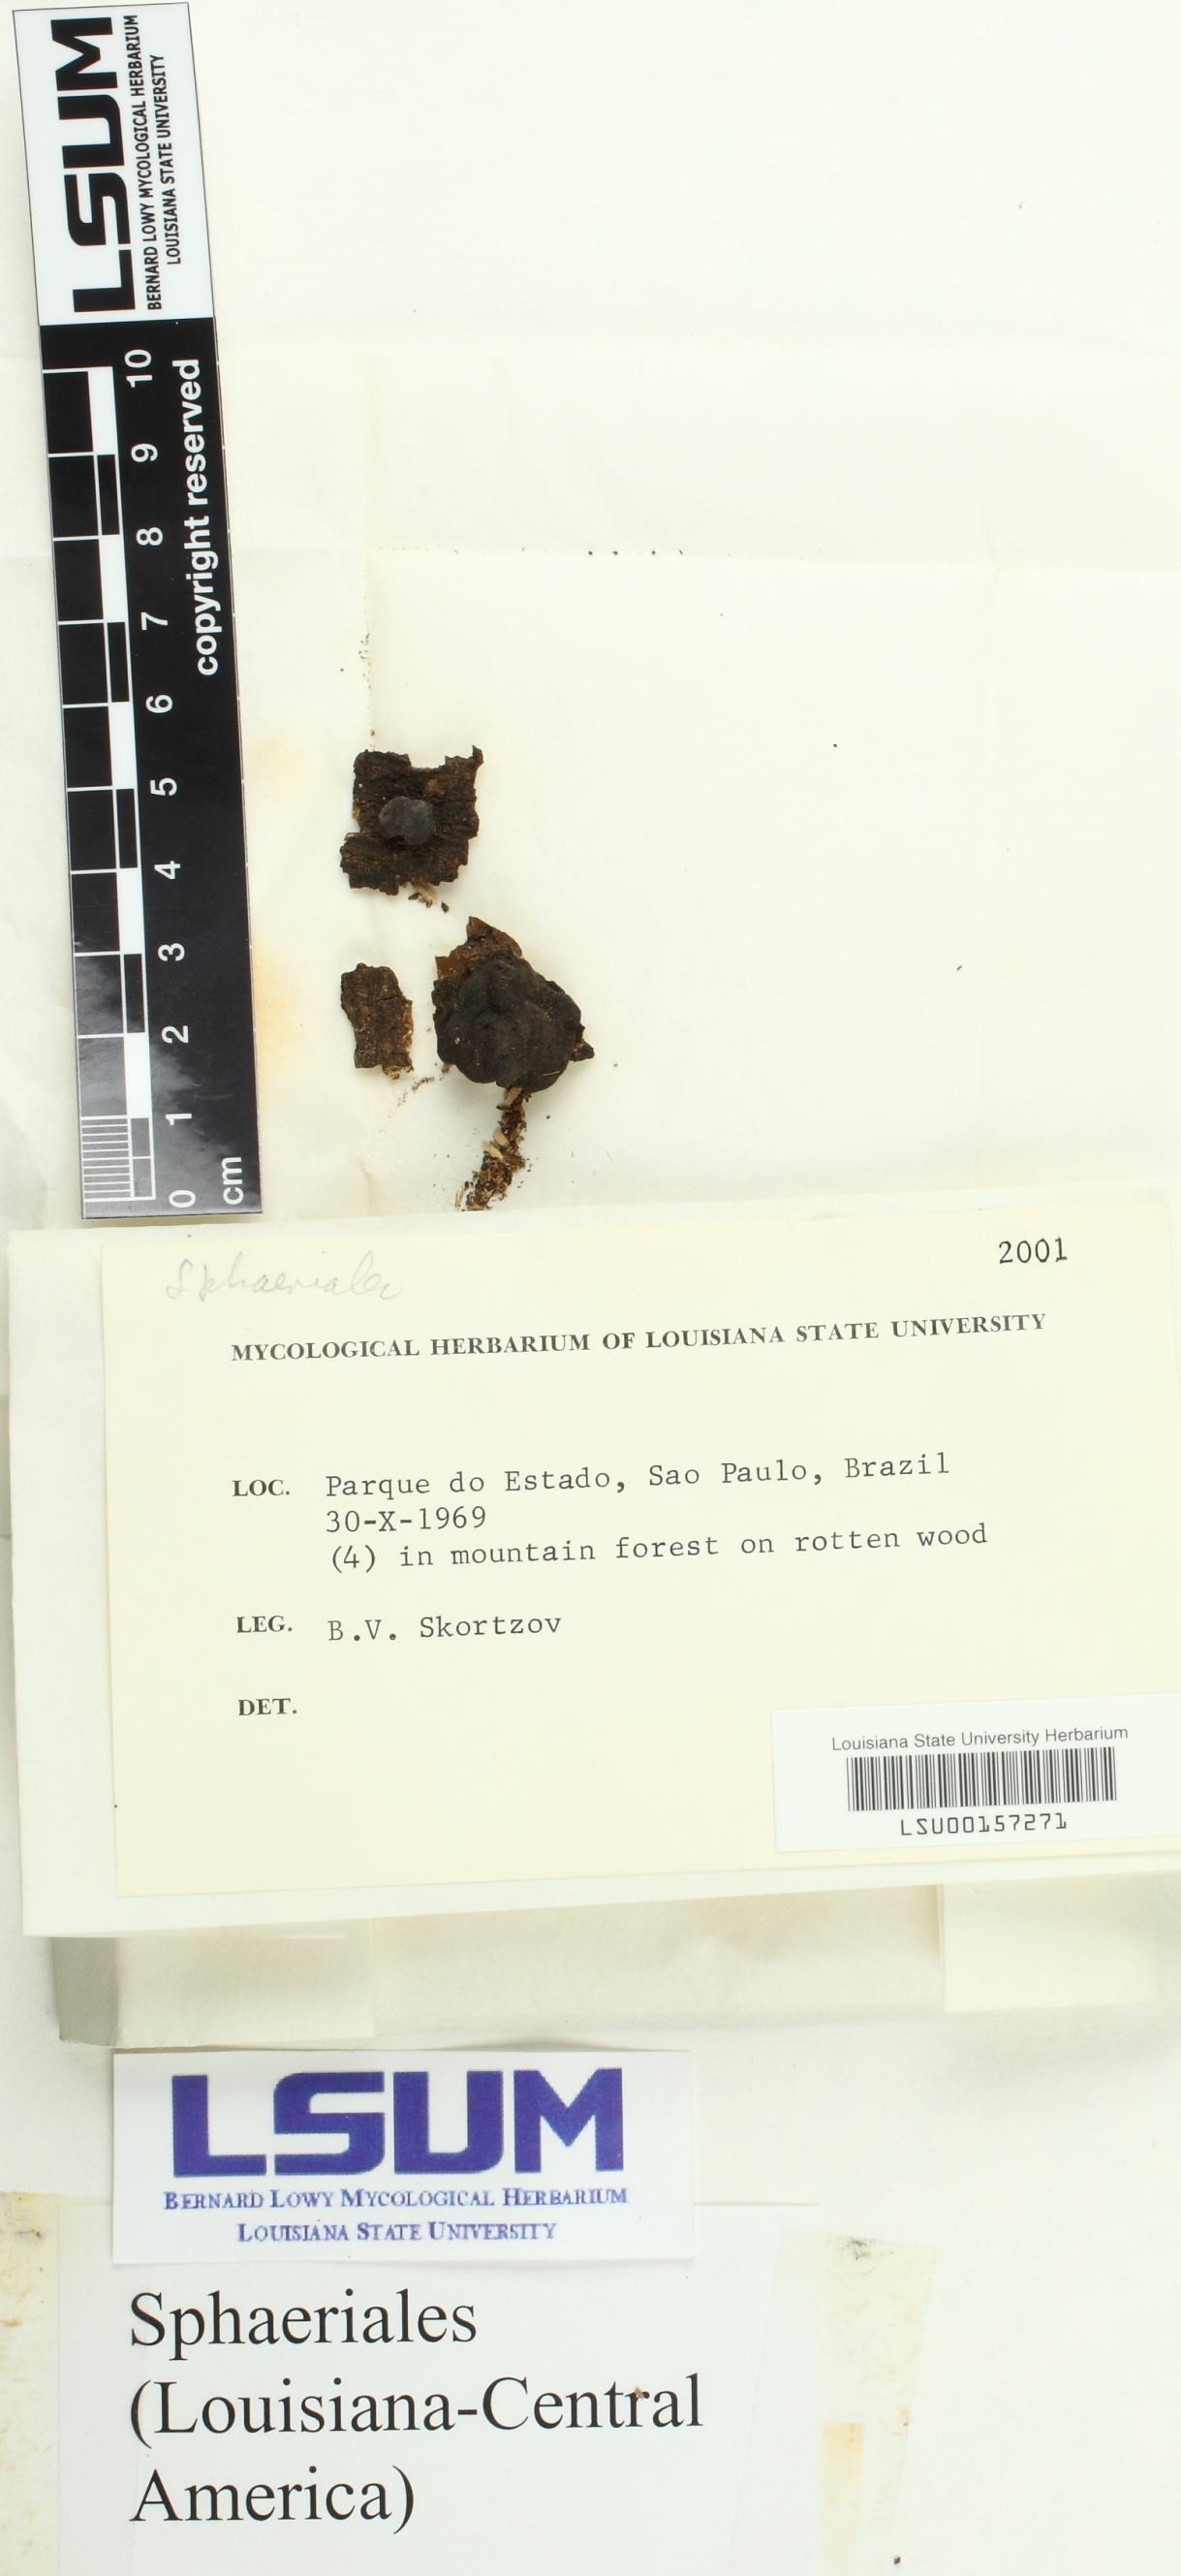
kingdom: Fungi
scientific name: Fungi
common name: Fungi
